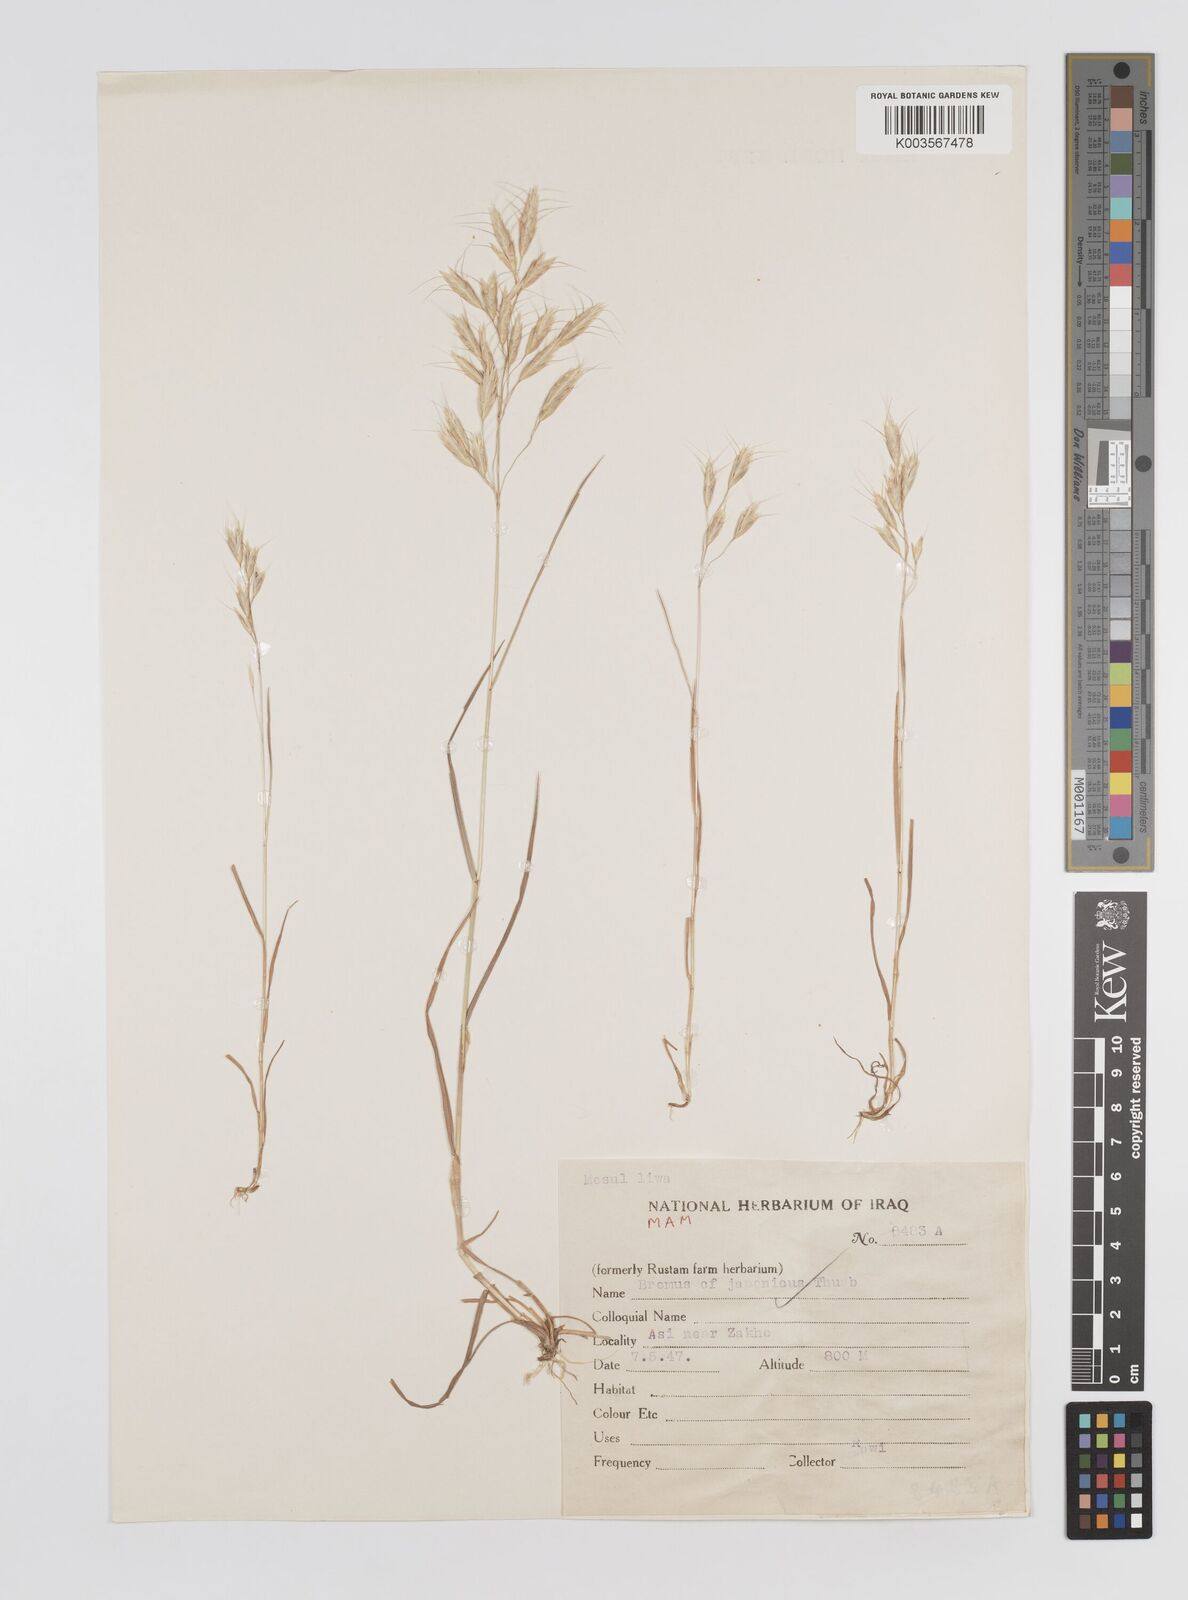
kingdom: Plantae
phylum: Tracheophyta
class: Liliopsida
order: Poales
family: Poaceae
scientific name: Poaceae
